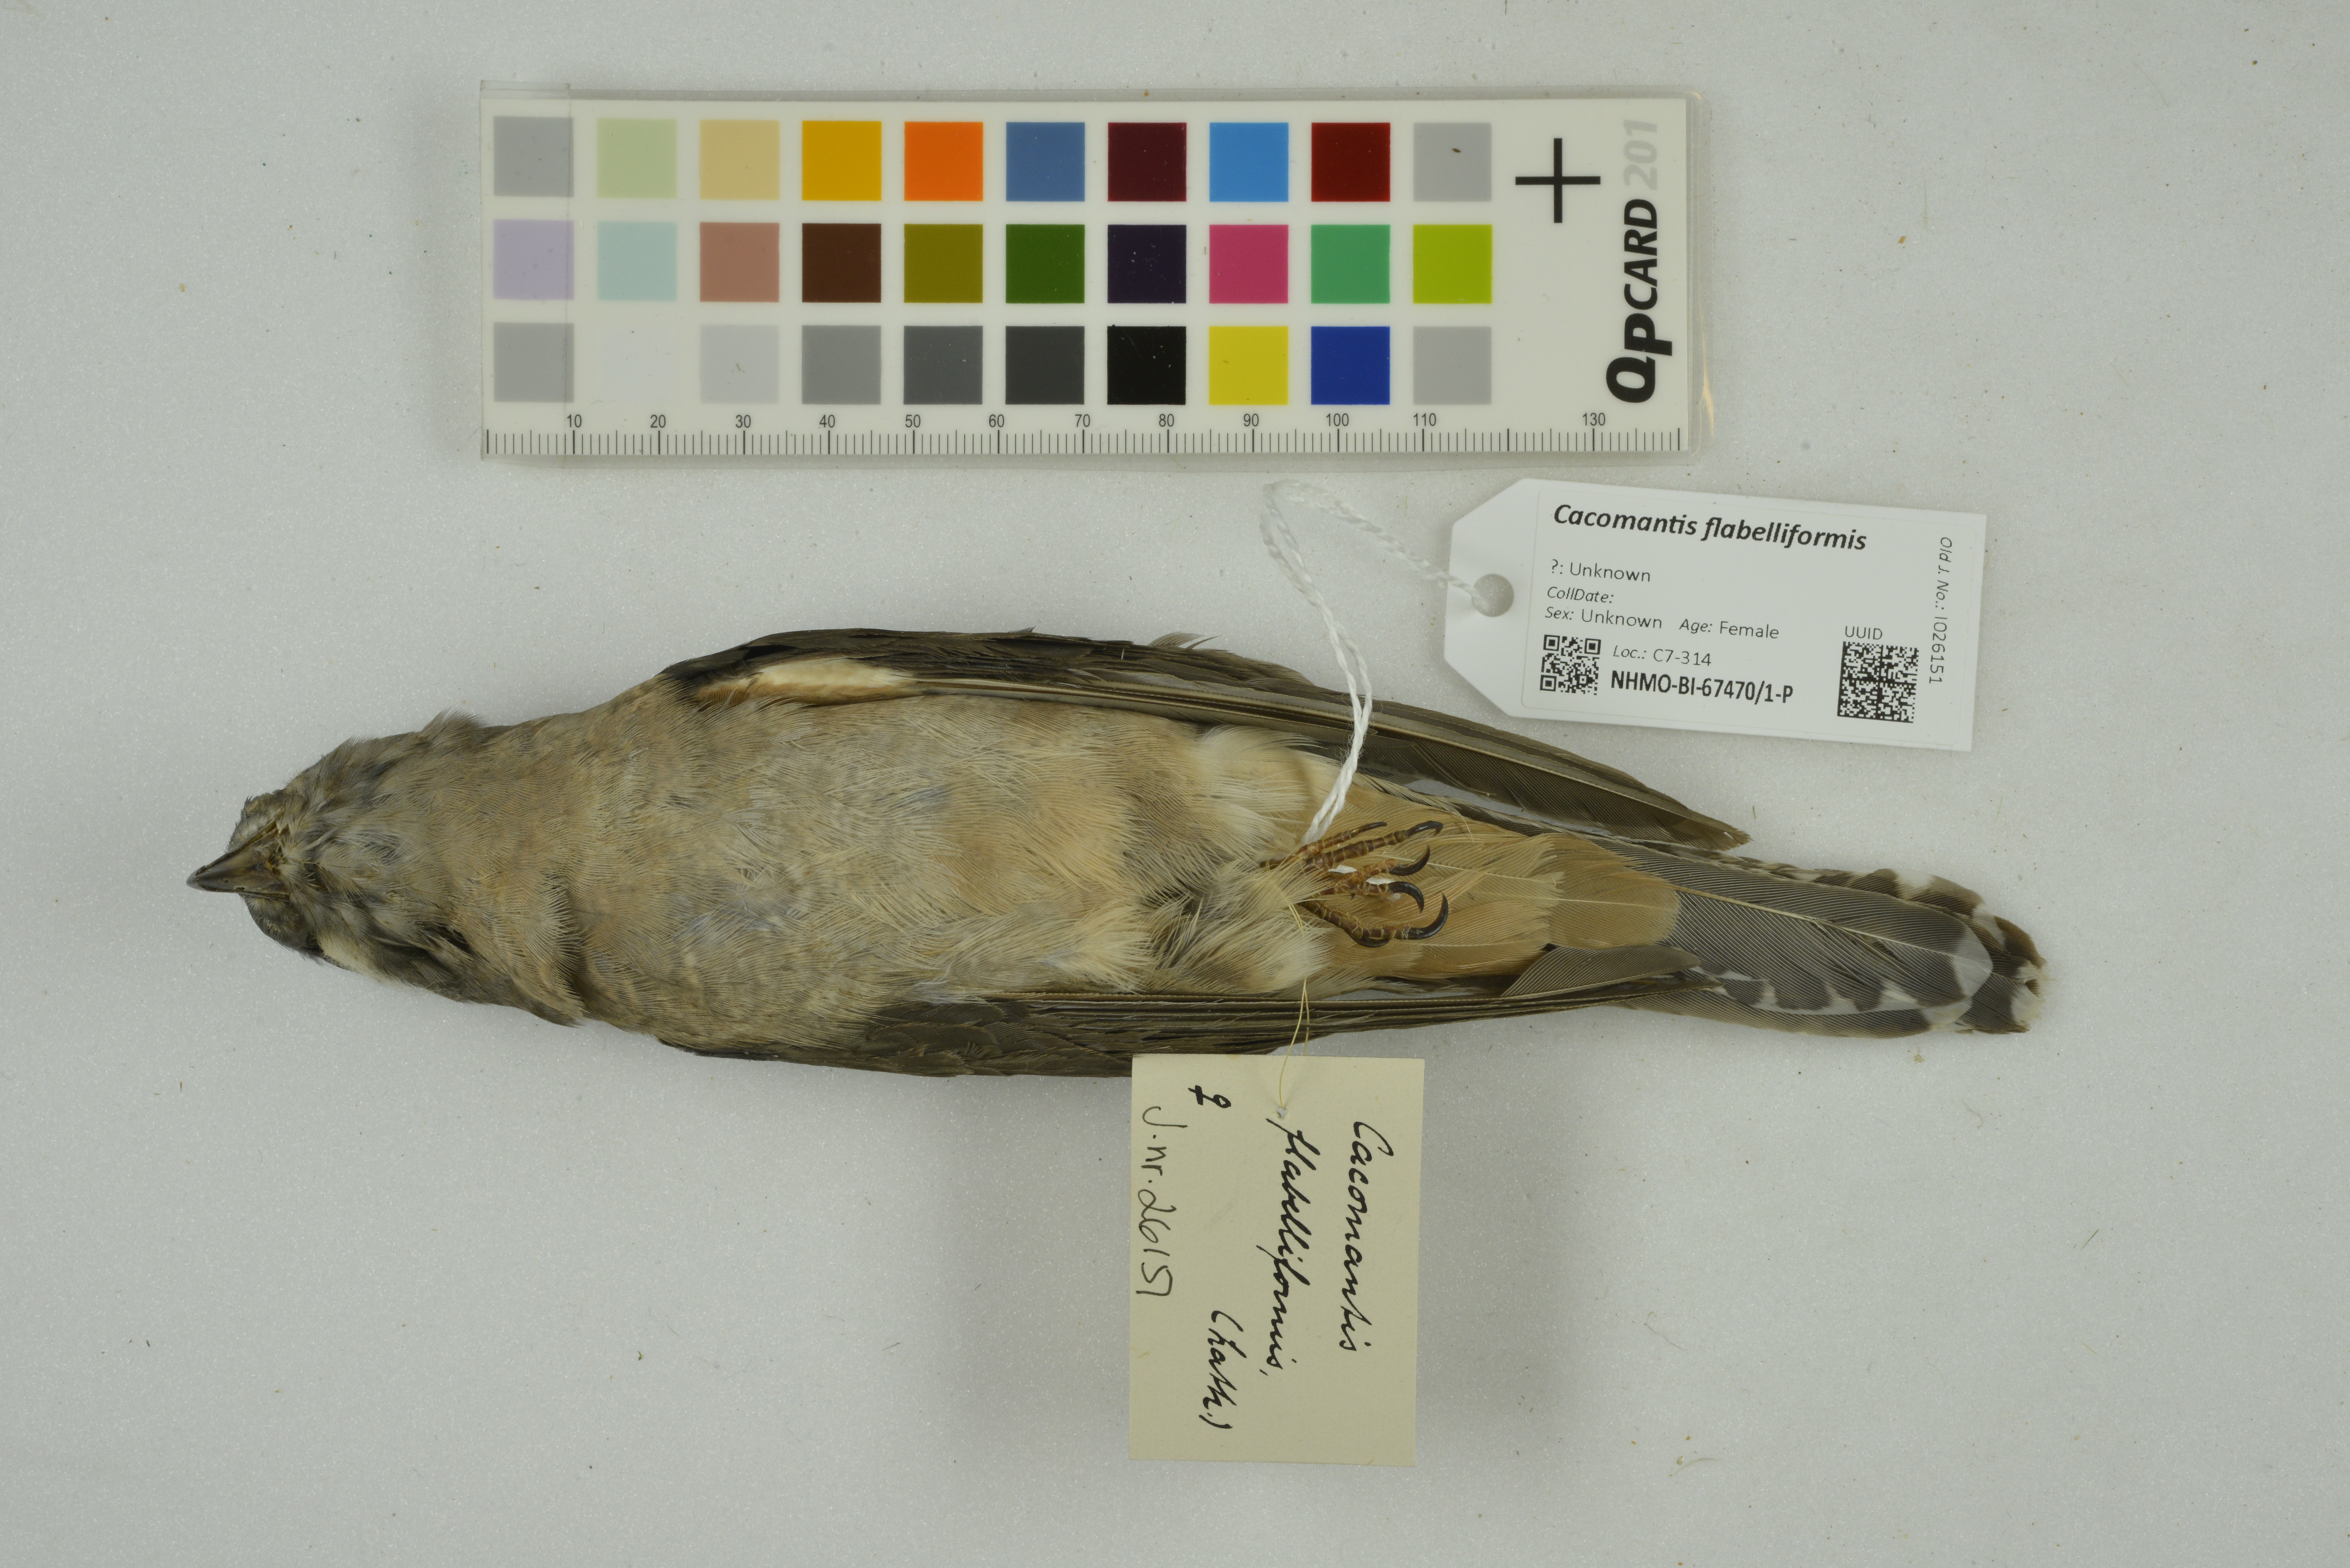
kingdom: Animalia
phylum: Chordata
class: Aves
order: Cuculiformes
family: Cuculidae
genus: Cacomantis
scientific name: Cacomantis flabelliformis
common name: Fan-tailed cuckoo
